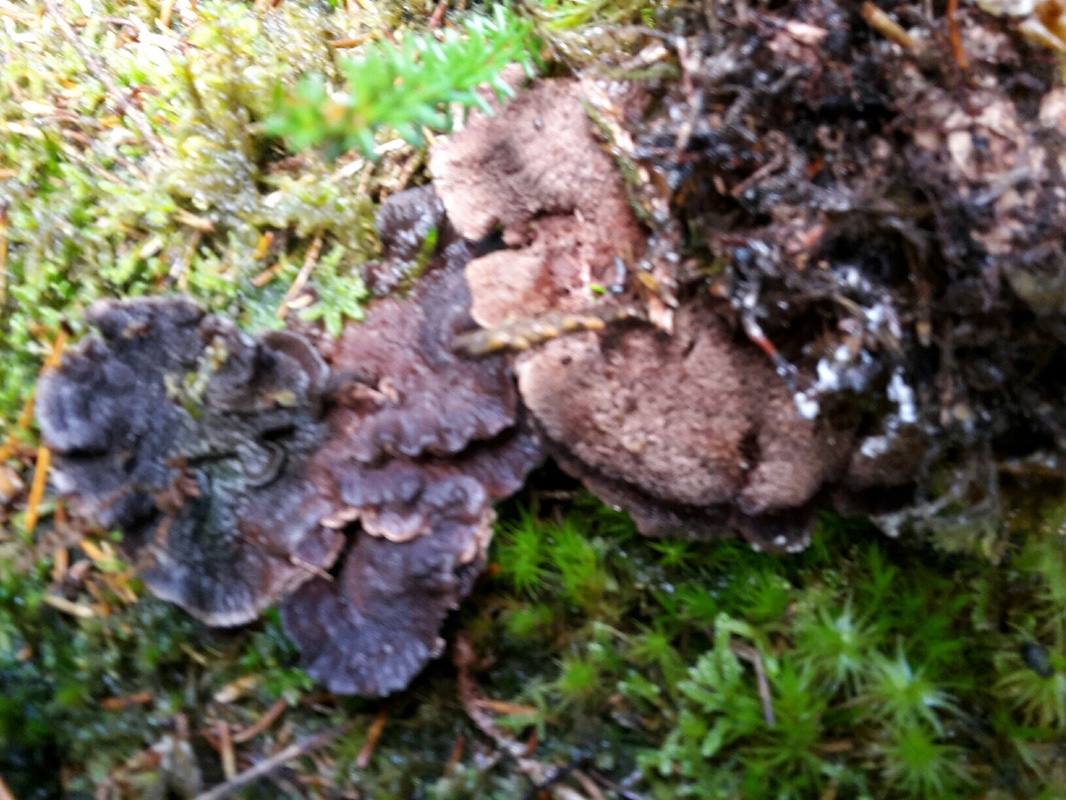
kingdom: Fungi
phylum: Basidiomycota
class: Agaricomycetes
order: Thelephorales
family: Bankeraceae
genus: Hydnellum
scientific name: Hydnellum cumulatum
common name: Rosette tooth
